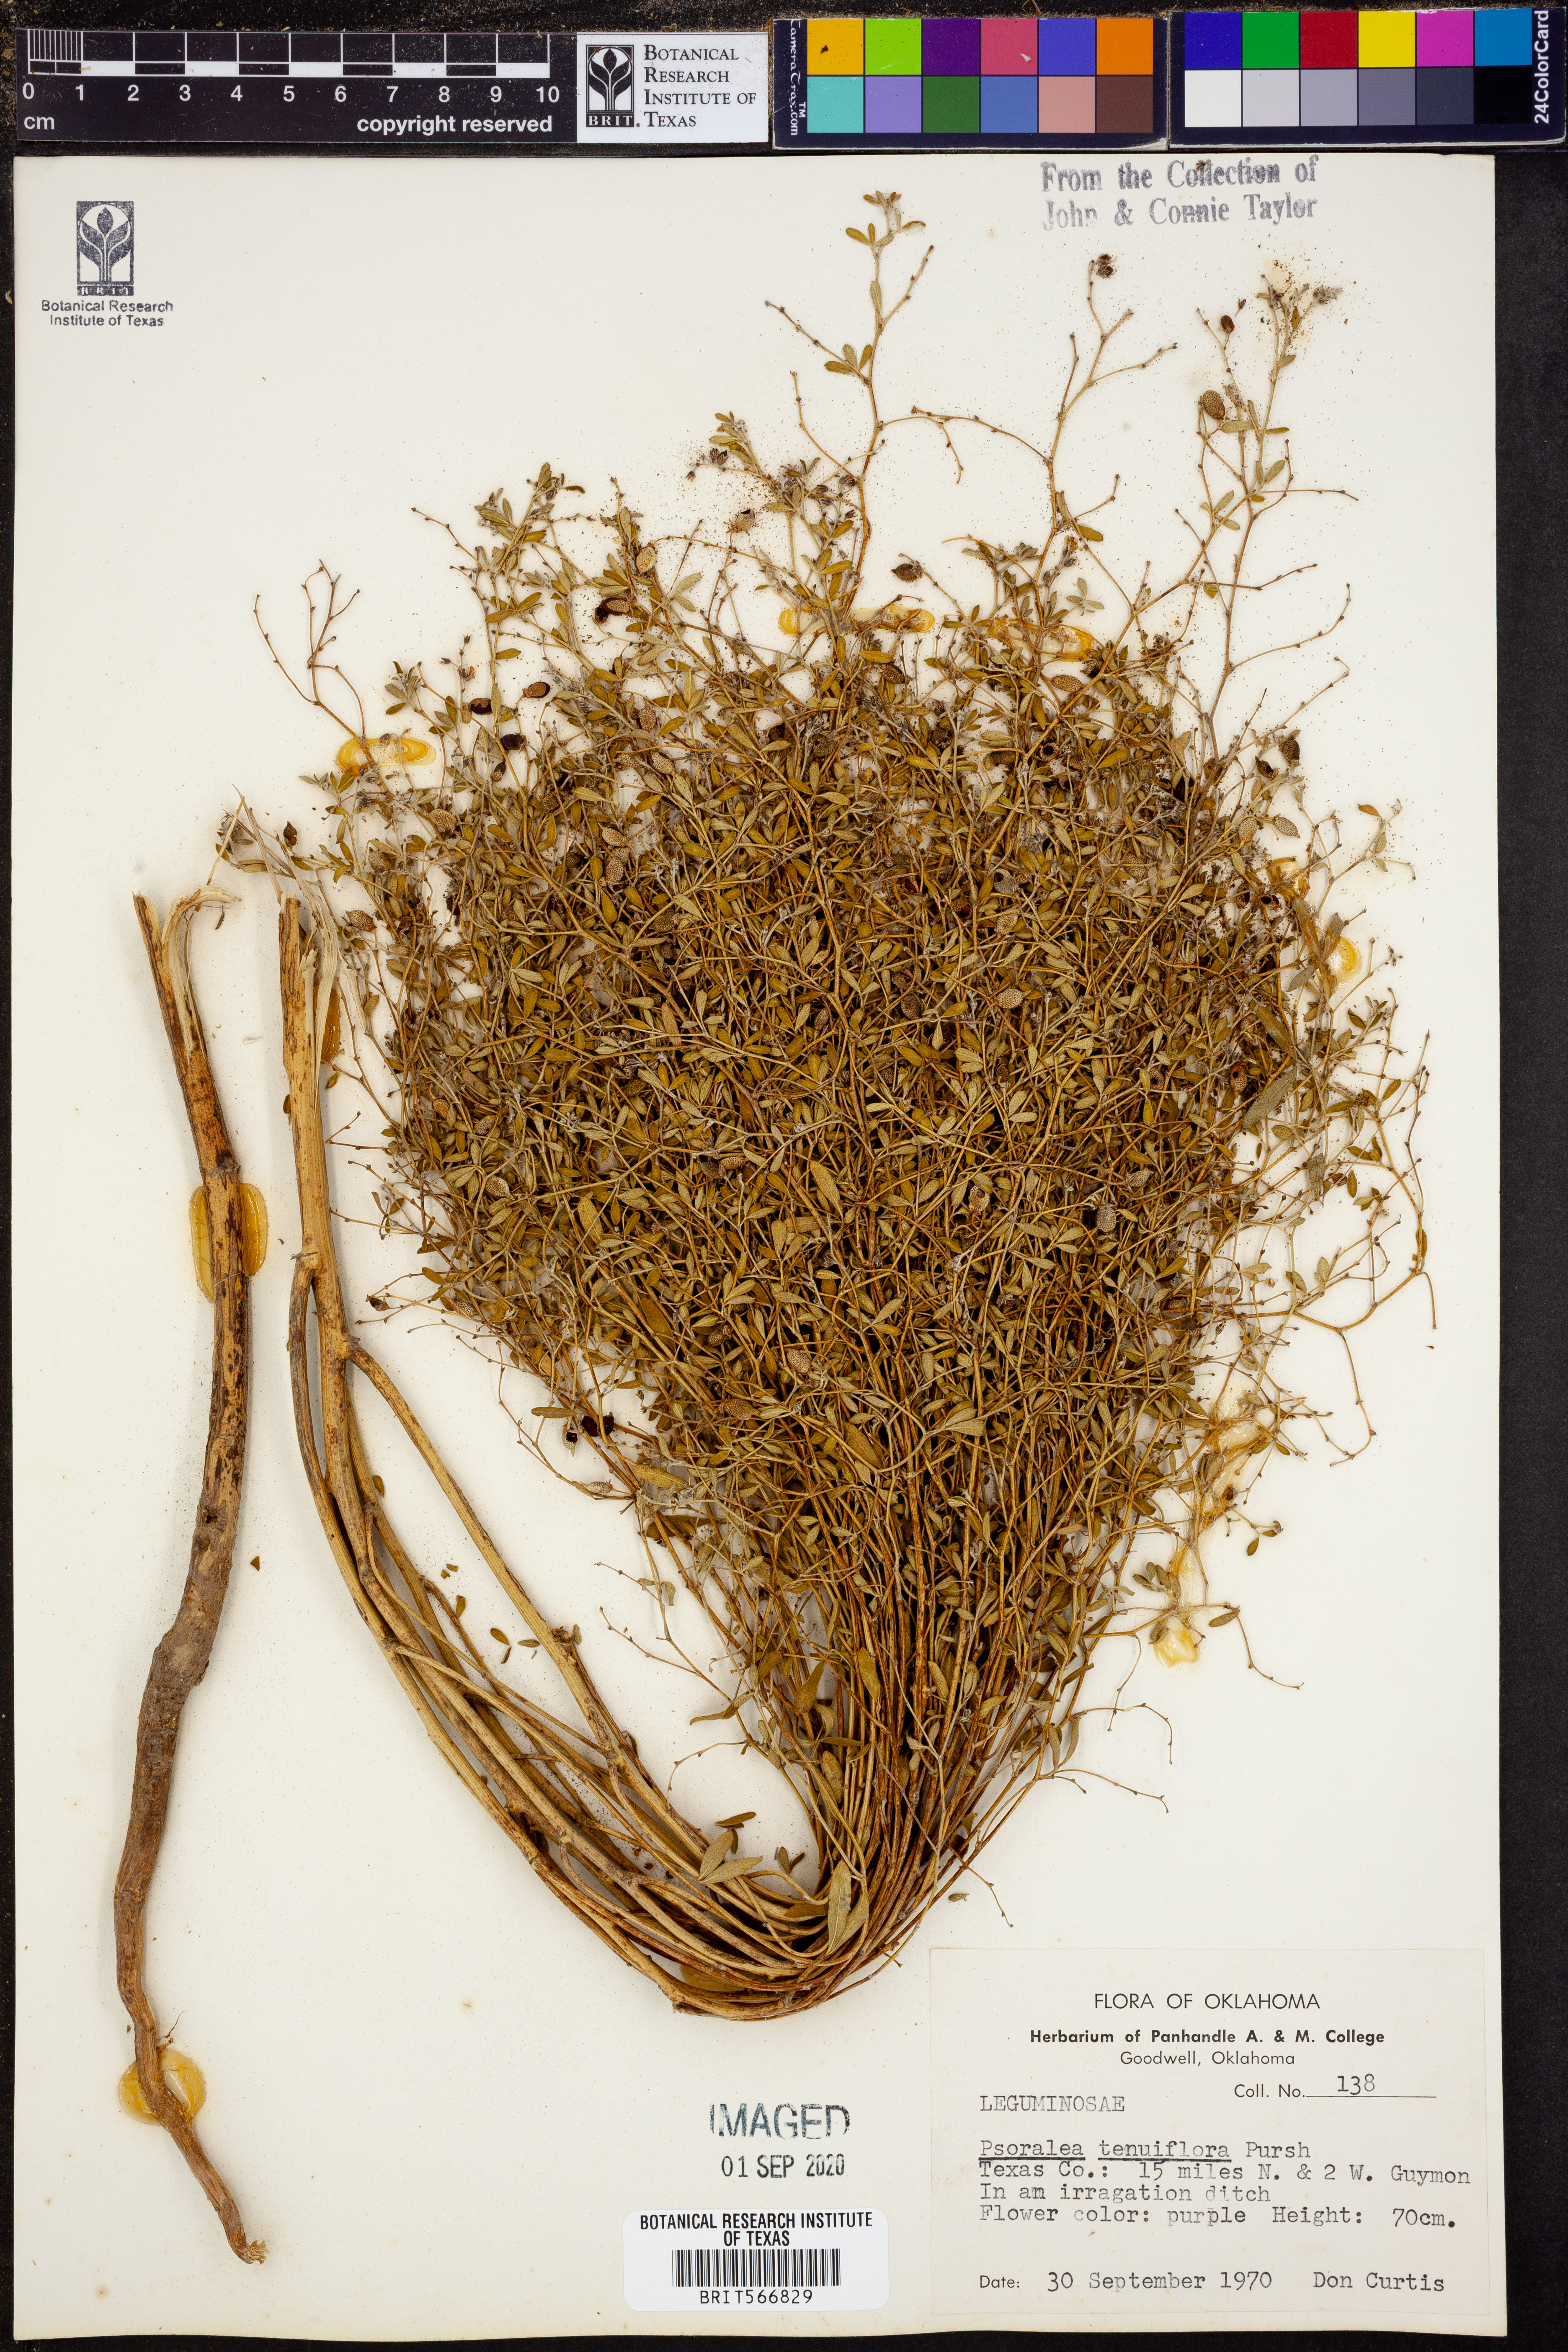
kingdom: Plantae
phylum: Tracheophyta
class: Magnoliopsida
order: Fabales
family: Fabaceae
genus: Pediomelum
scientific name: Pediomelum tenuiflorum
